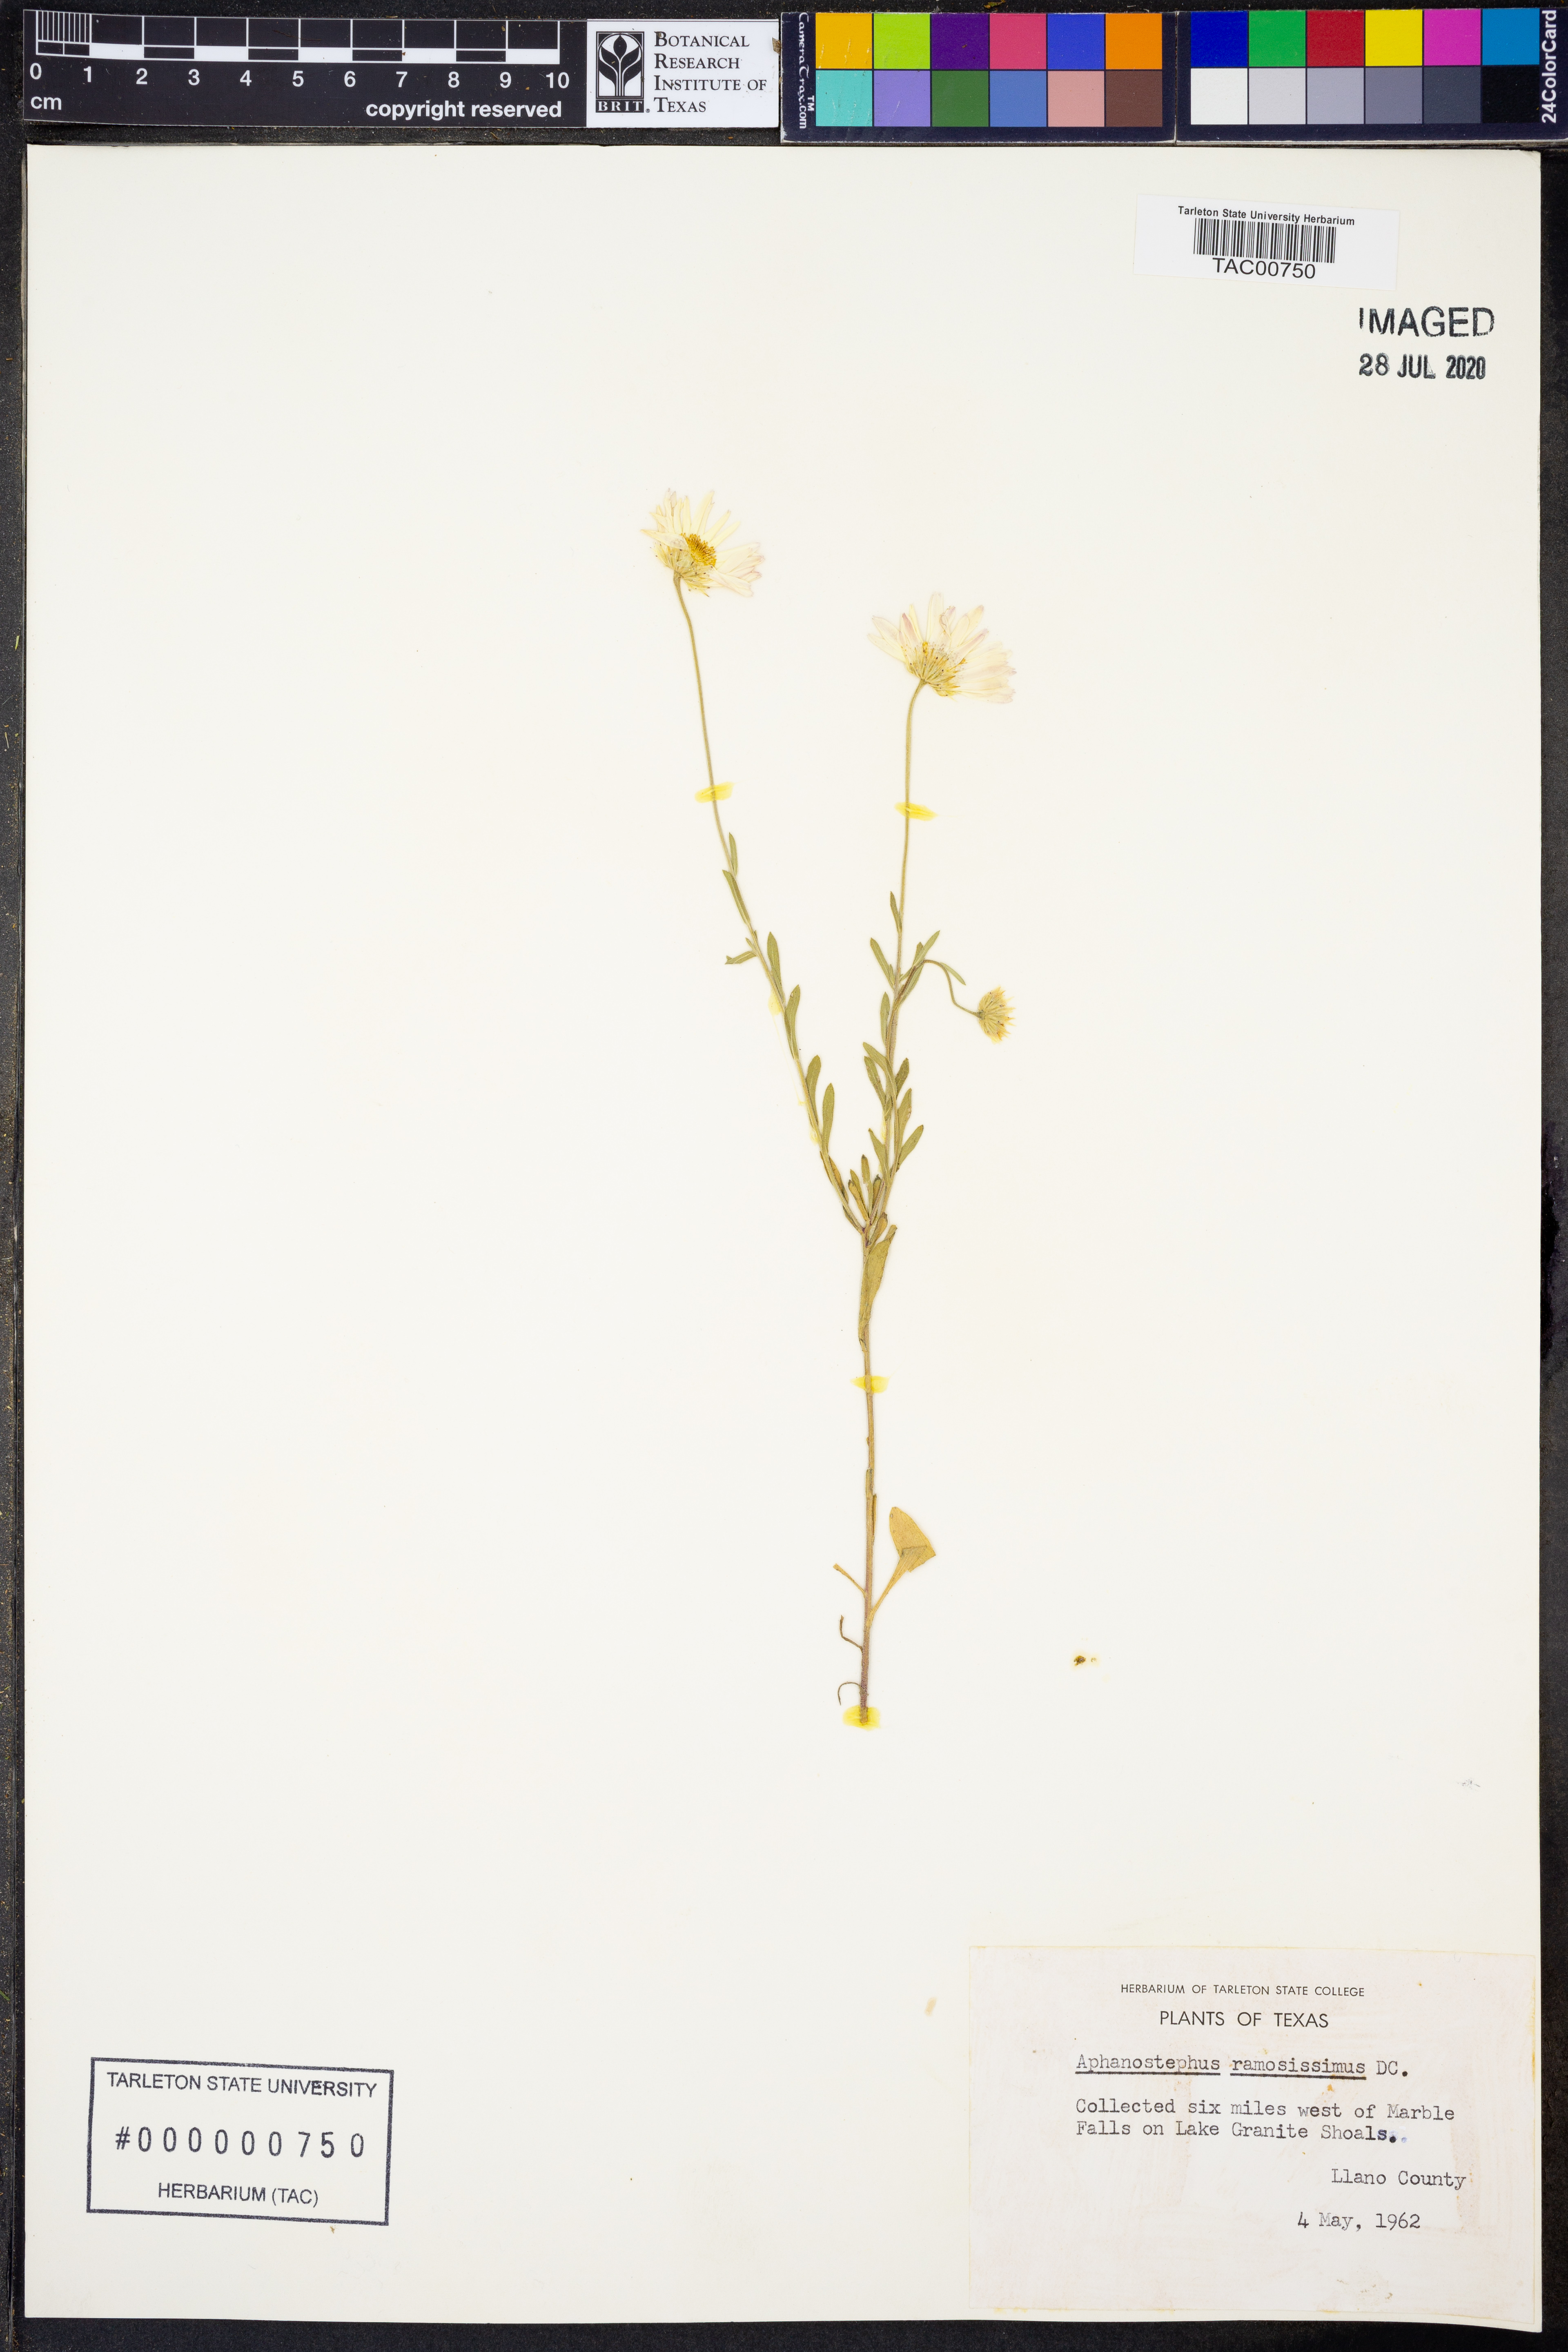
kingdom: Plantae
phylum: Tracheophyta
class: Magnoliopsida
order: Asterales
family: Asteraceae
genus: Aphanostephus
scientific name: Aphanostephus ramosissimus
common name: Plains lazy daisy
